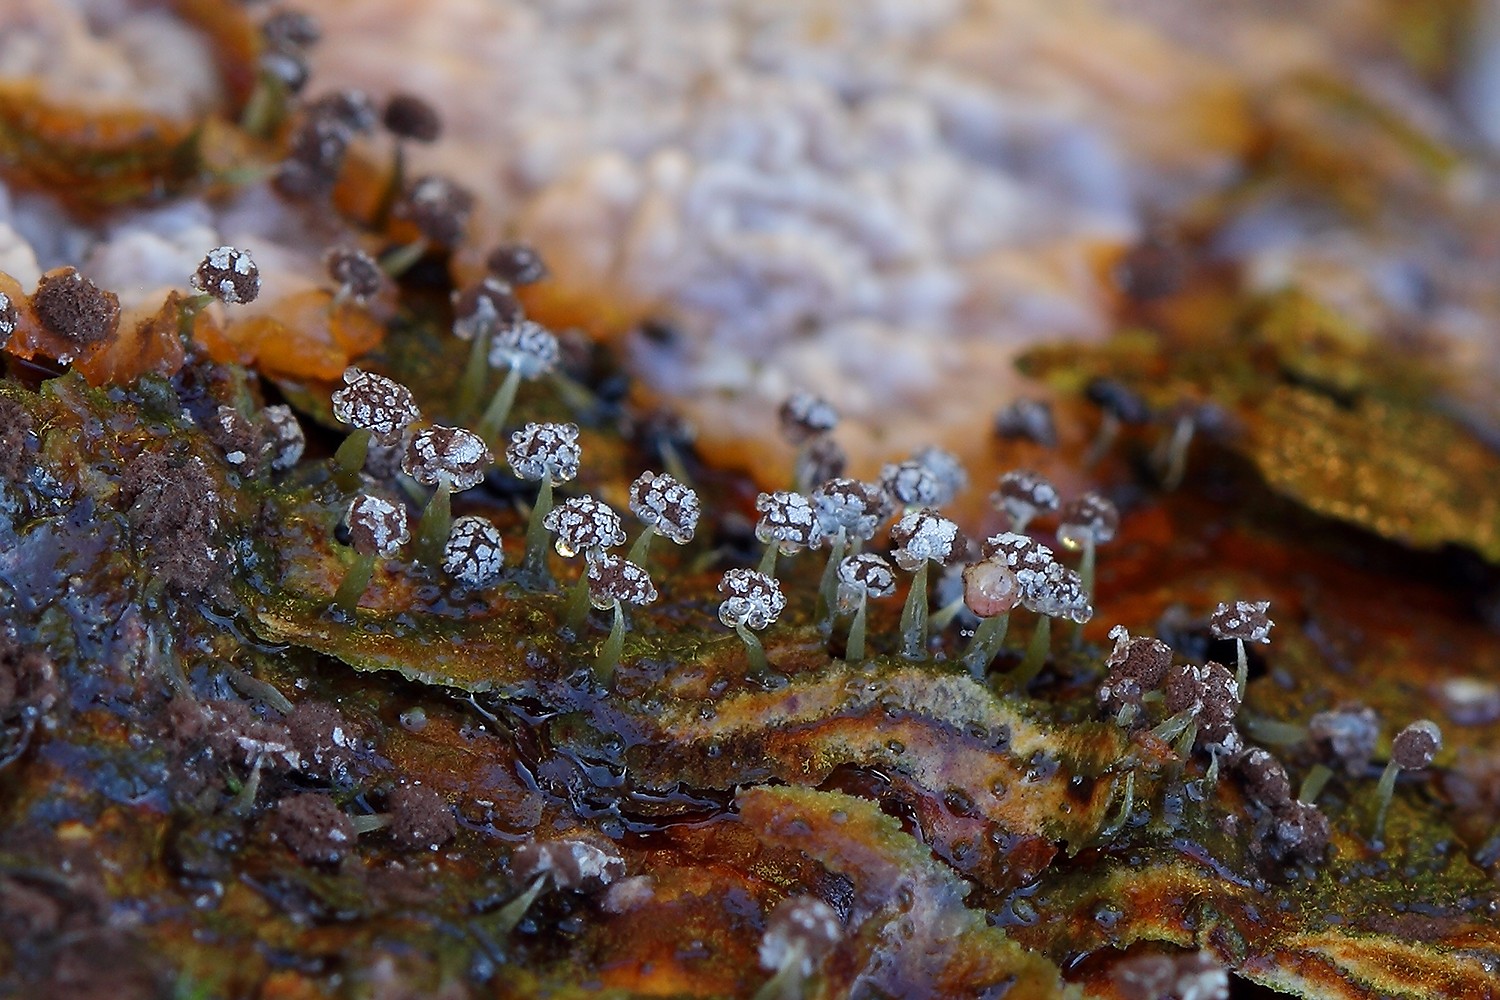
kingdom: Protozoa
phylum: Mycetozoa
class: Myxomycetes
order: Physarales
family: Physaraceae
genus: Physarum
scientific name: Physarum album
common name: nikkende støvknop
